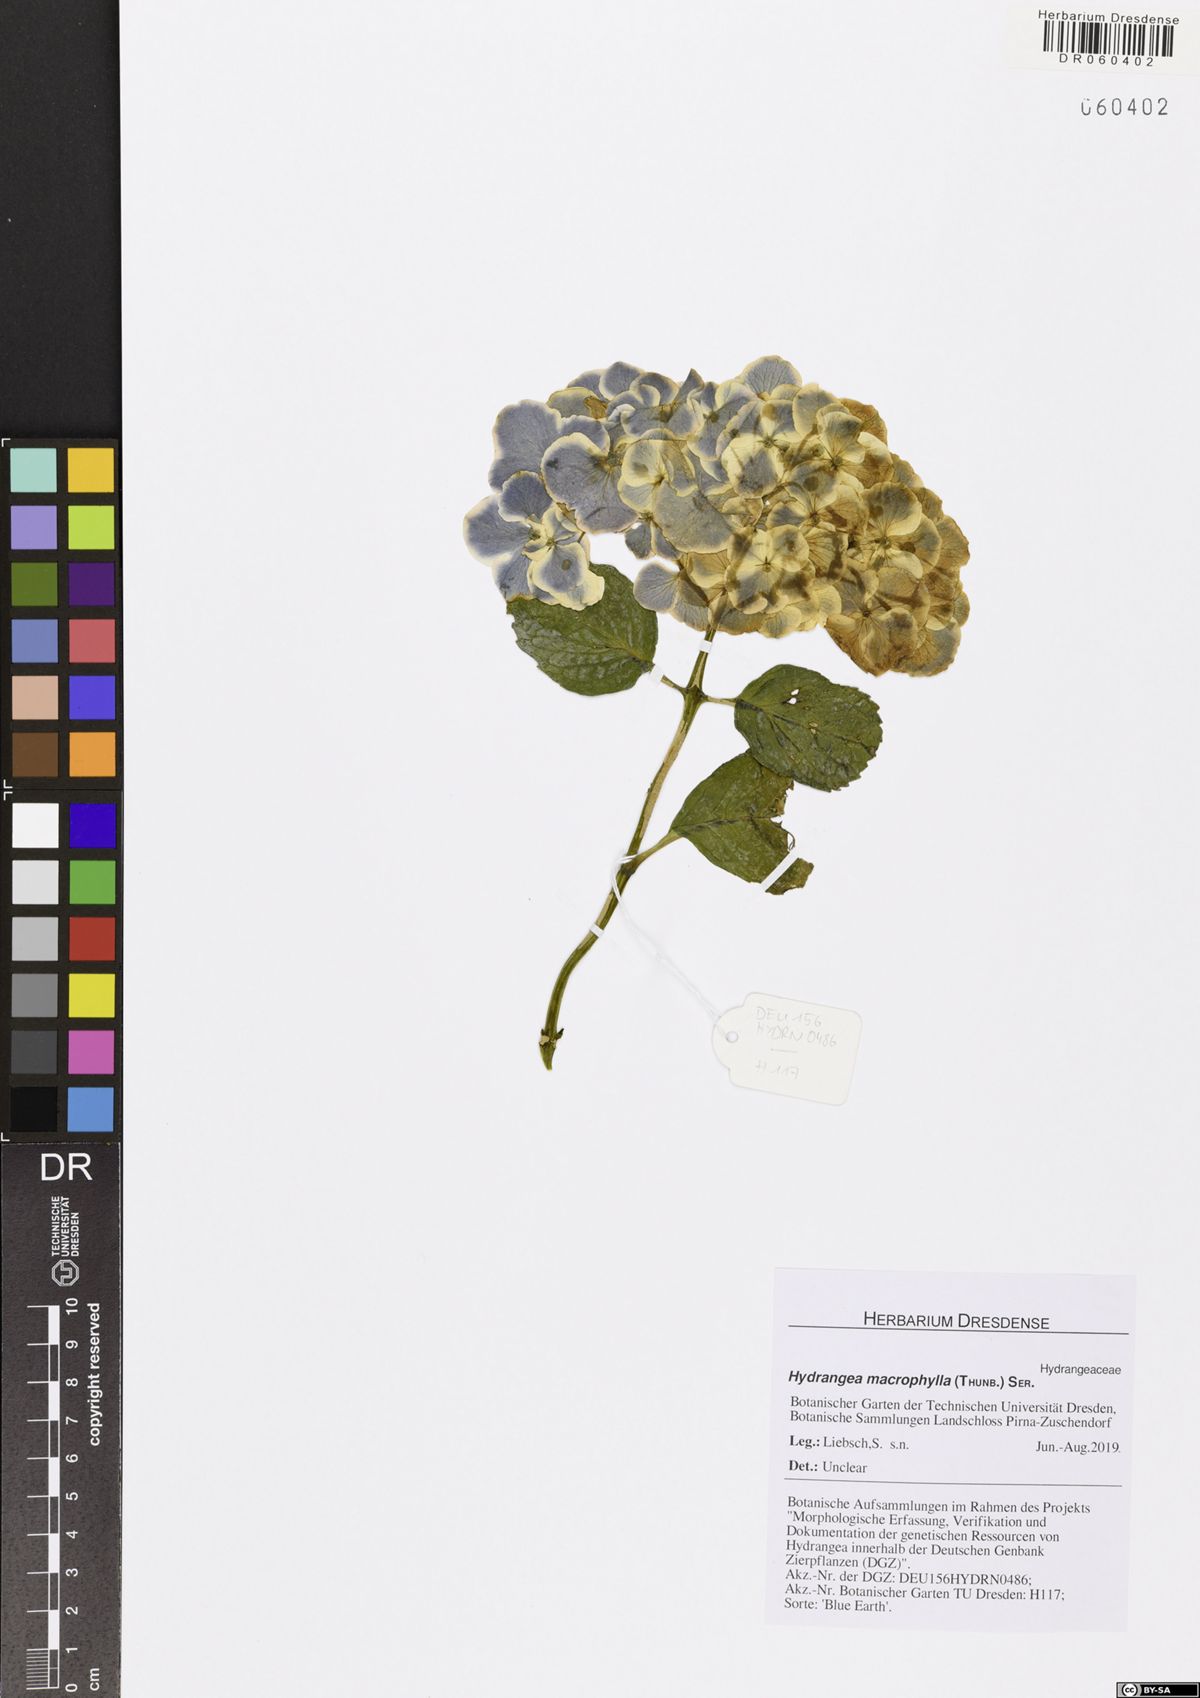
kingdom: Plantae
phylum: Tracheophyta
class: Magnoliopsida
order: Cornales
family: Hydrangeaceae
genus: Hydrangea
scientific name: Hydrangea macrophylla
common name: Hydrangea
